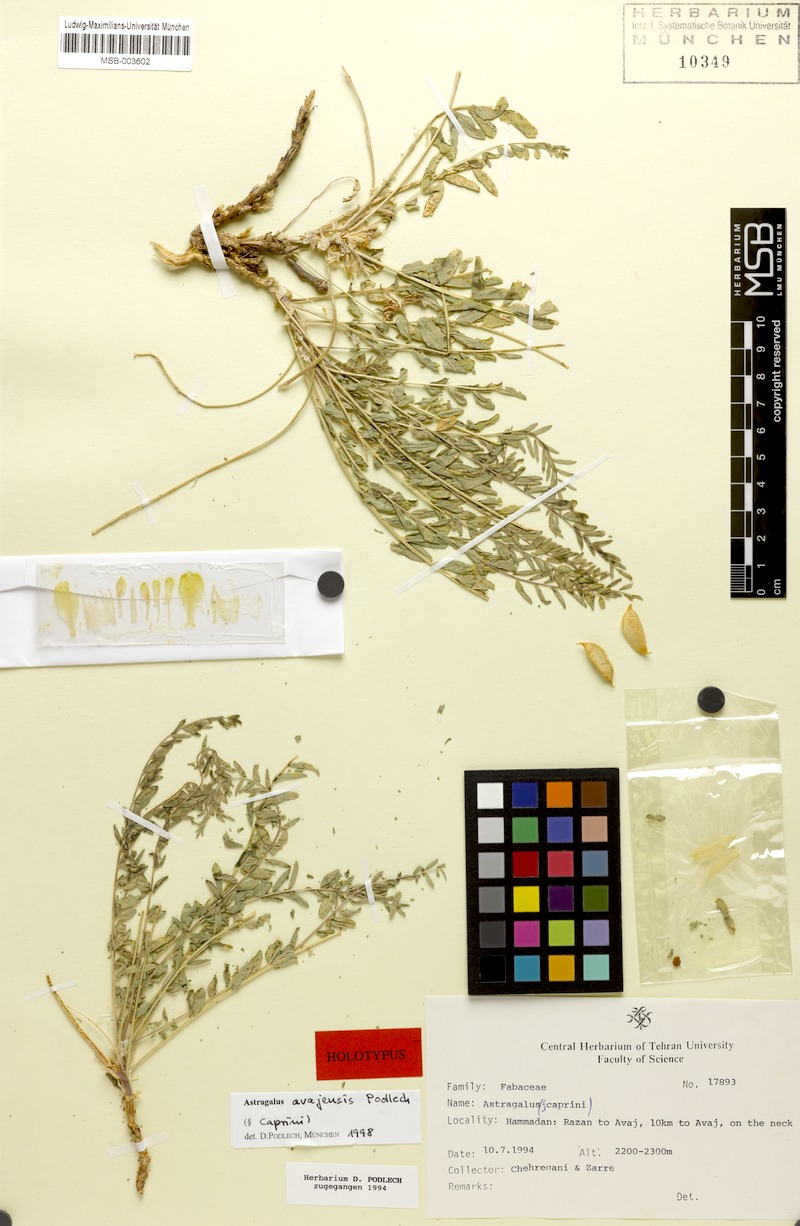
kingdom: Plantae
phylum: Tracheophyta
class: Magnoliopsida
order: Fabales
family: Fabaceae
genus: Astragalus
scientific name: Astragalus avajensis
